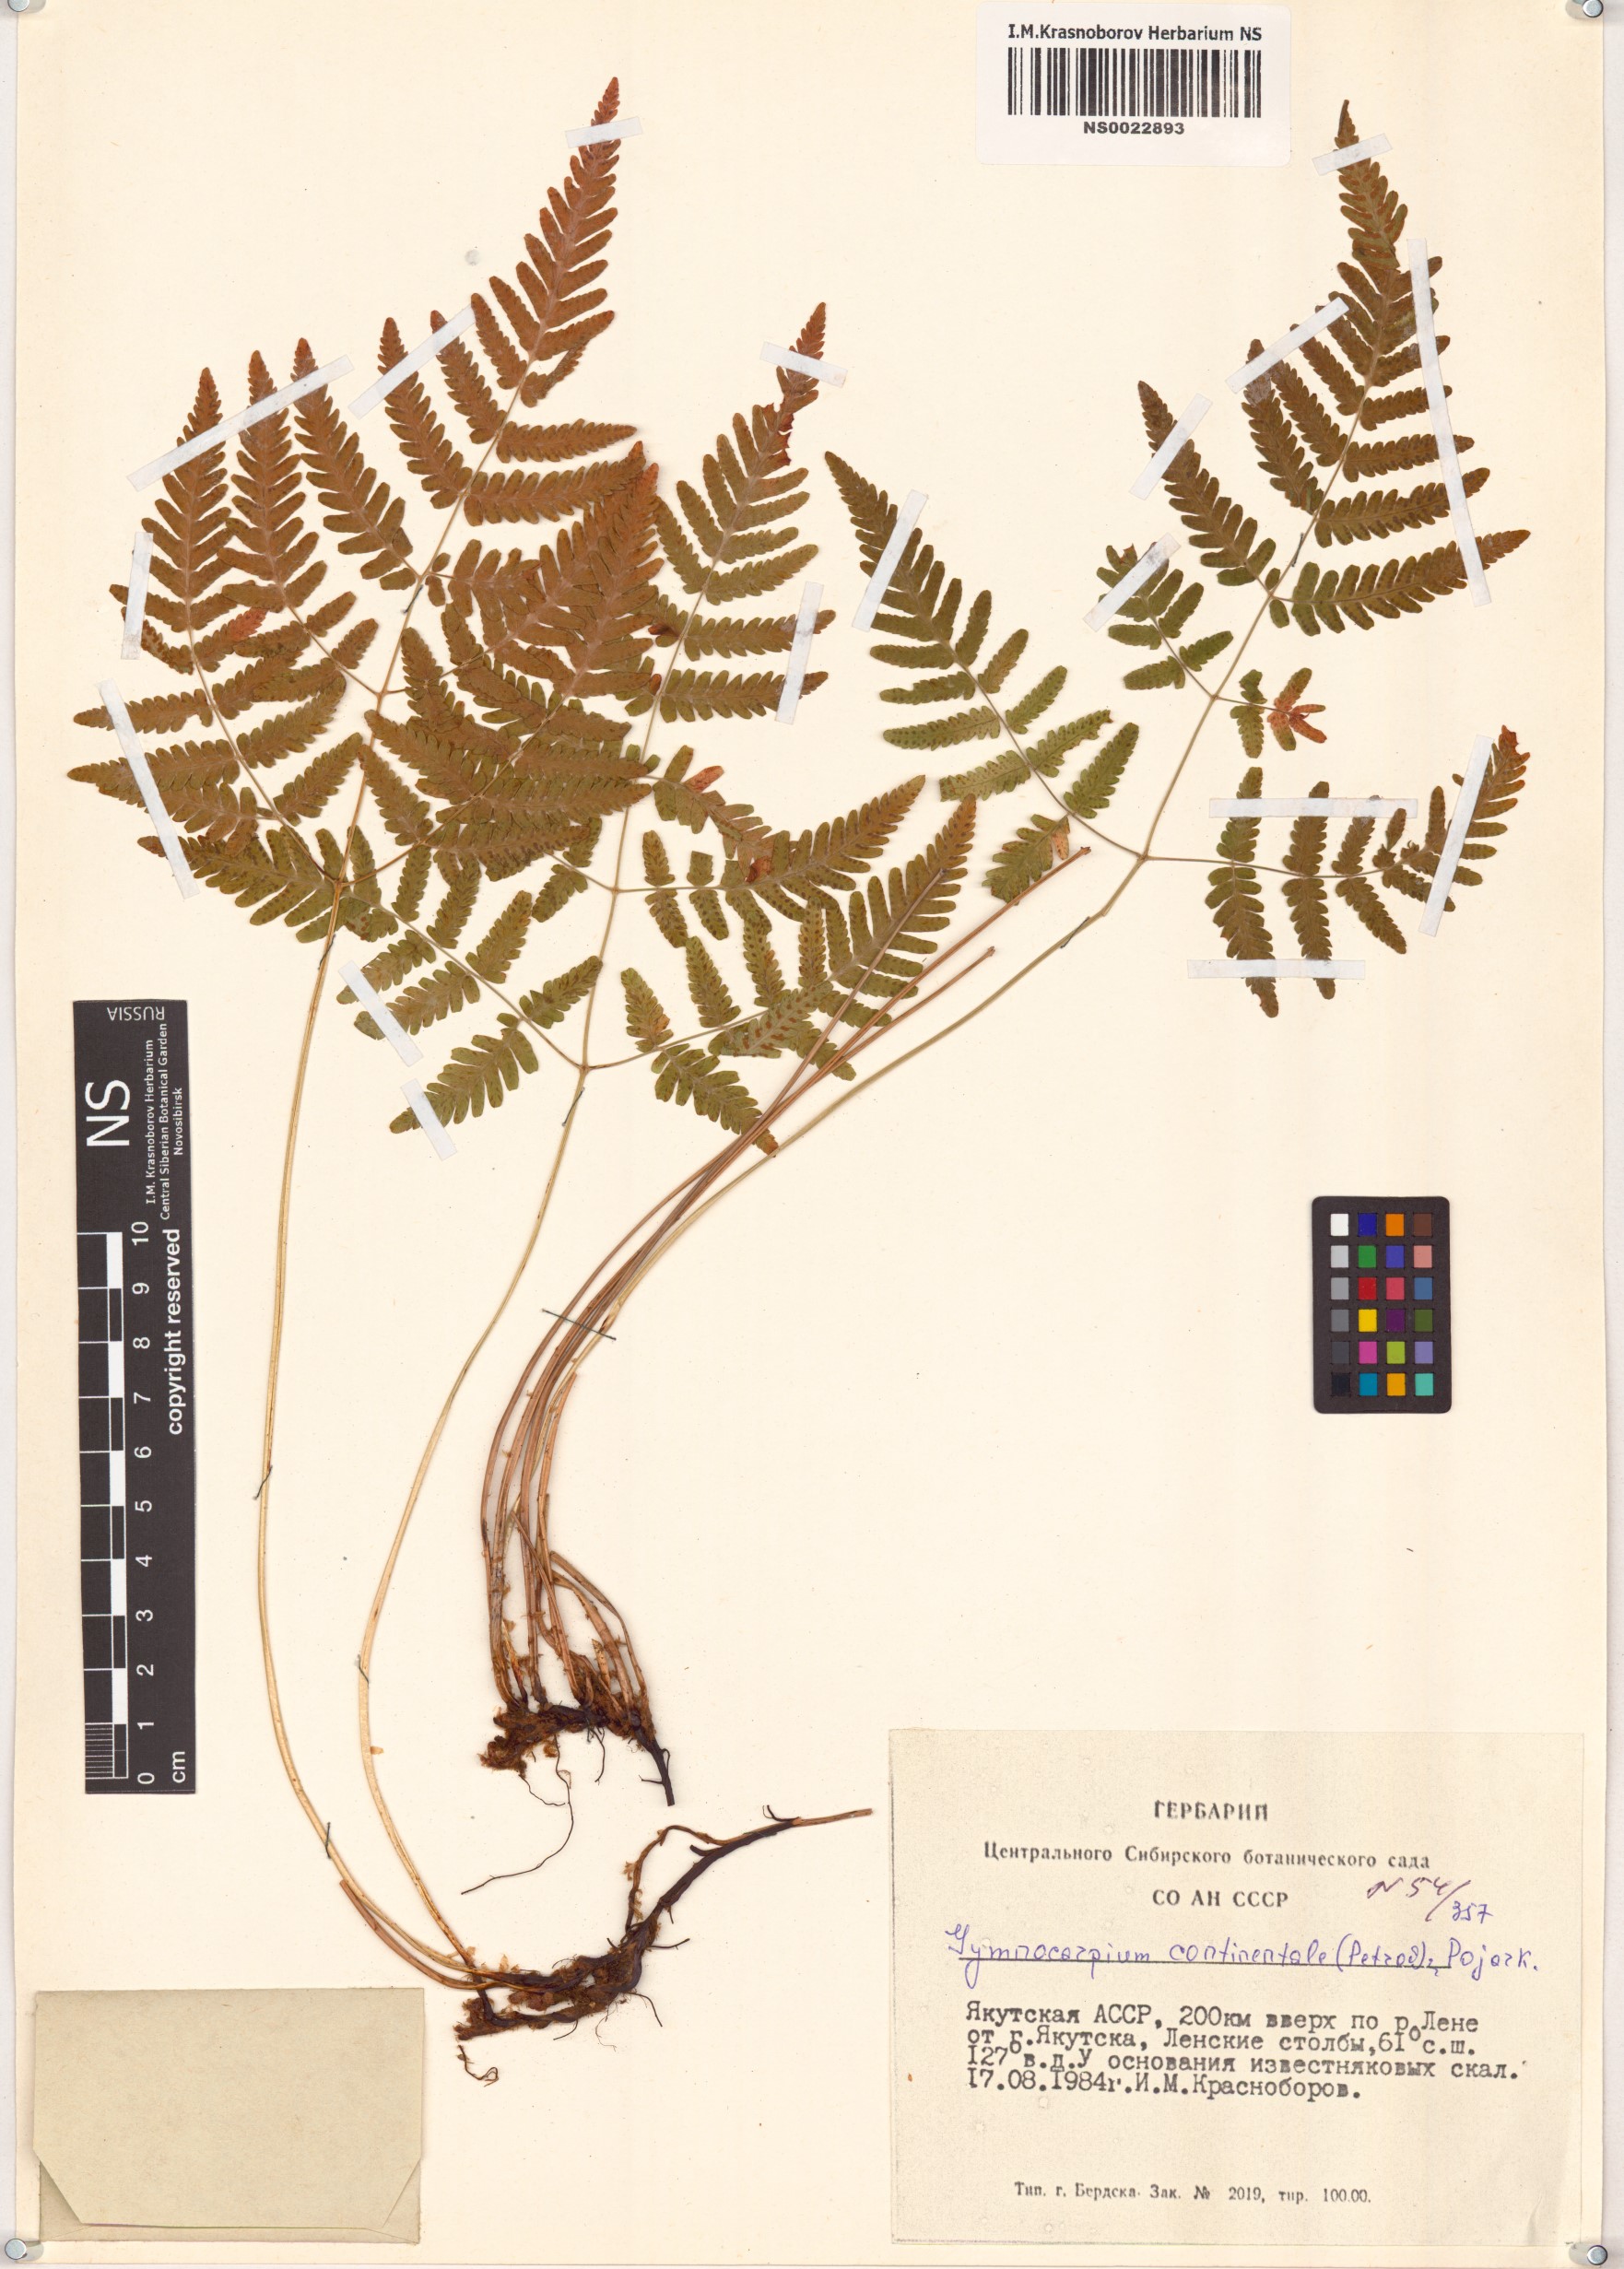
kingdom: Plantae
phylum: Tracheophyta
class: Polypodiopsida
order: Polypodiales
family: Cystopteridaceae
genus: Gymnocarpium
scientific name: Gymnocarpium continentale
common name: Asian oak fern
